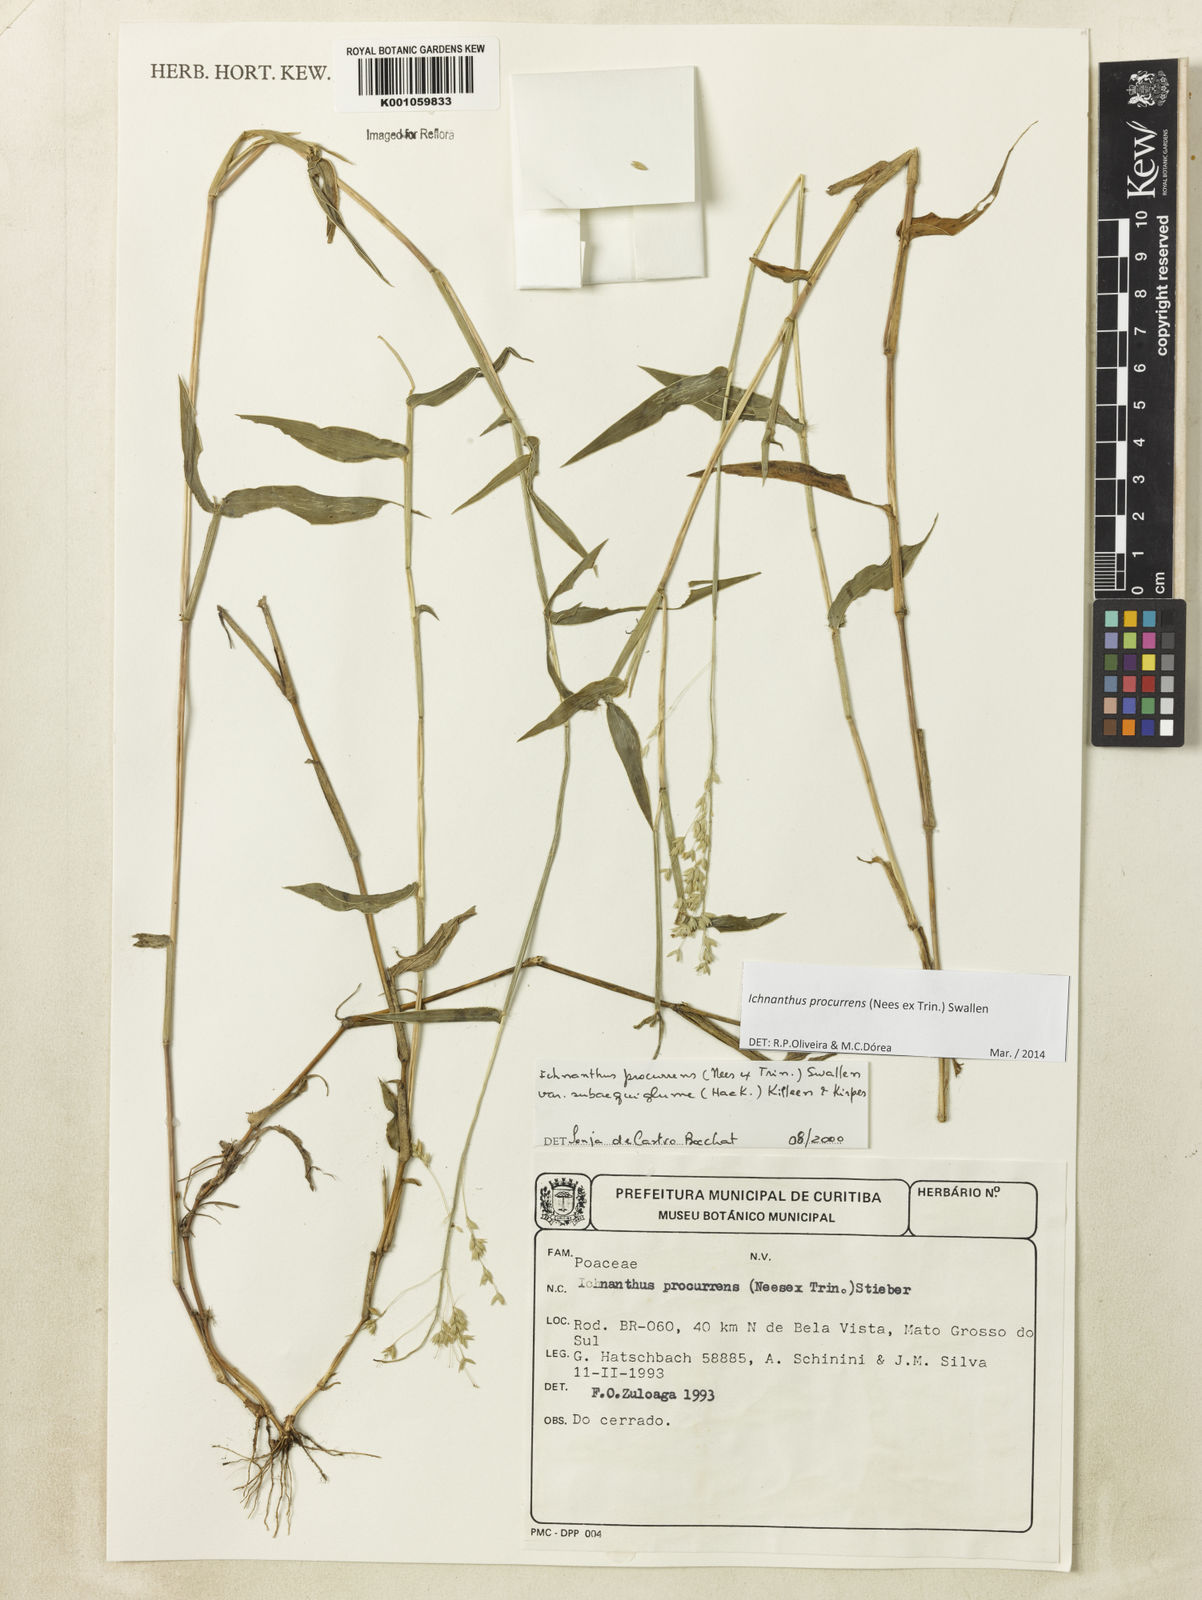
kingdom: Plantae
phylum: Tracheophyta
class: Liliopsida
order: Poales
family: Poaceae
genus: Oedochloa
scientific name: Oedochloa procurrens
